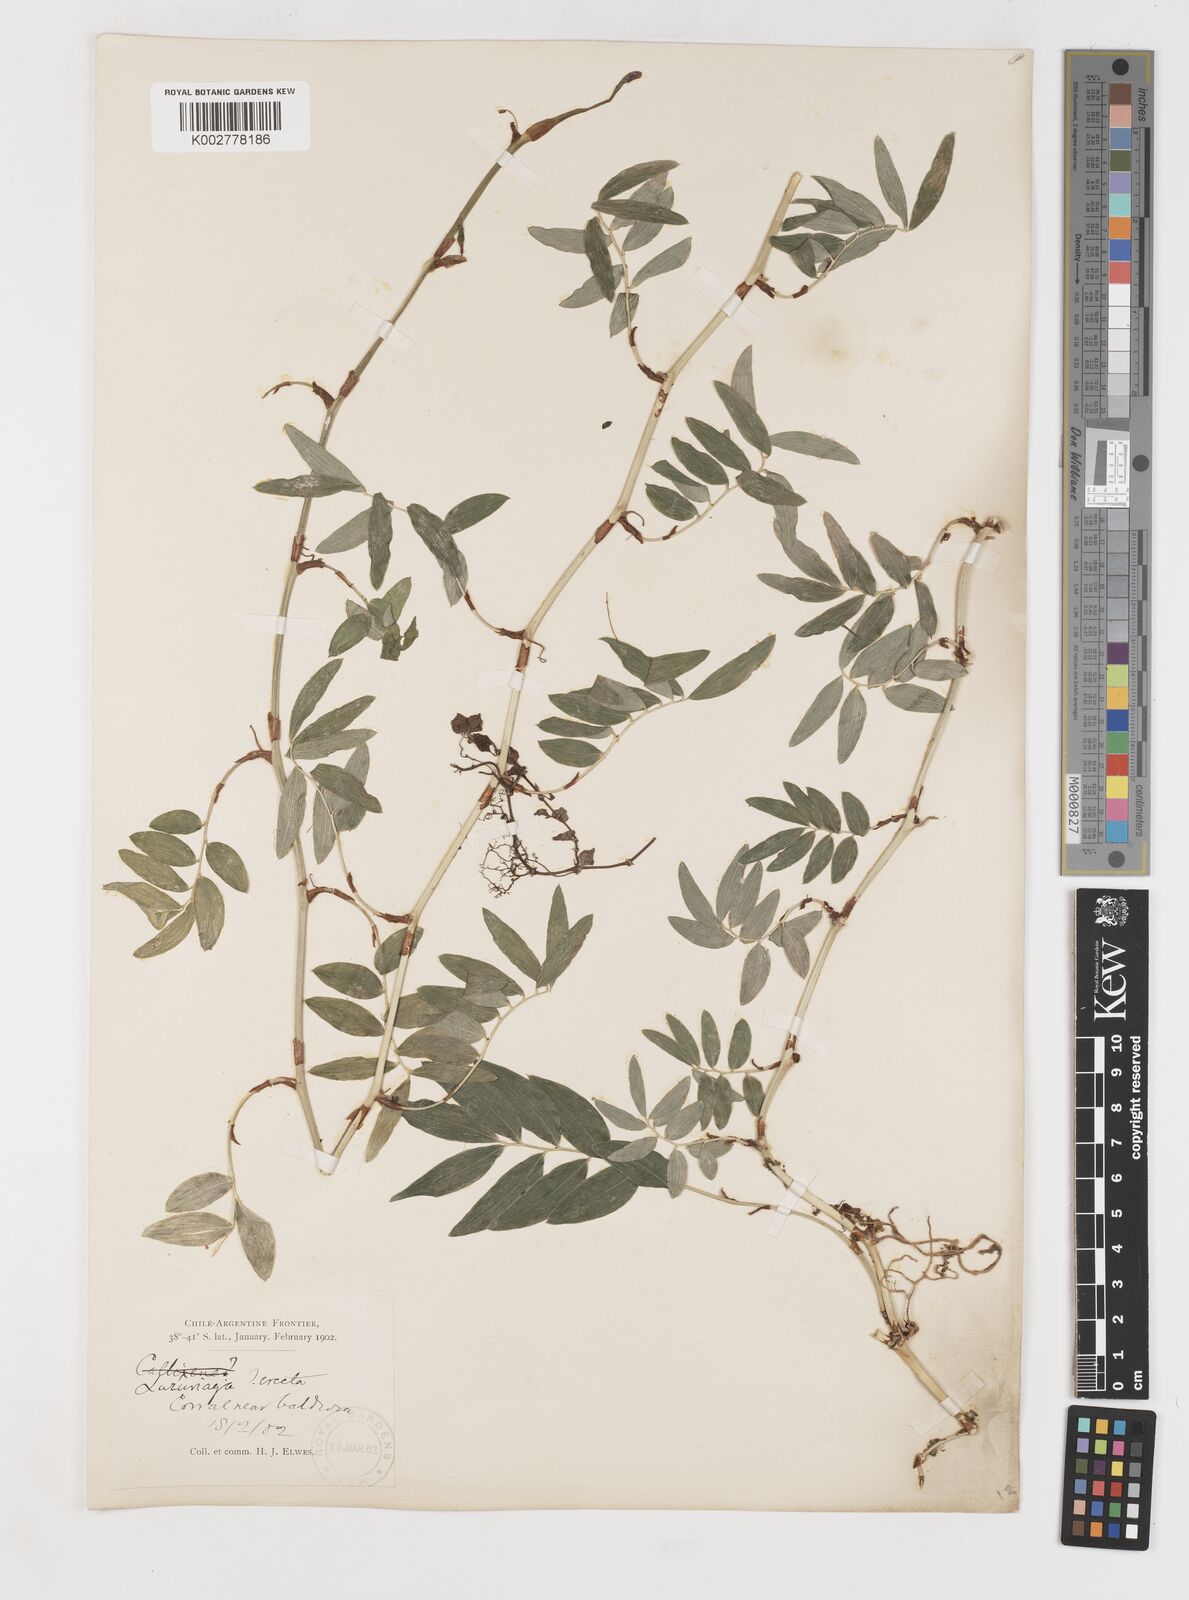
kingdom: Plantae
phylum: Tracheophyta
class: Liliopsida
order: Liliales
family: Alstroemeriaceae
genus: Luzuriaga
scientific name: Luzuriaga polyphylla
